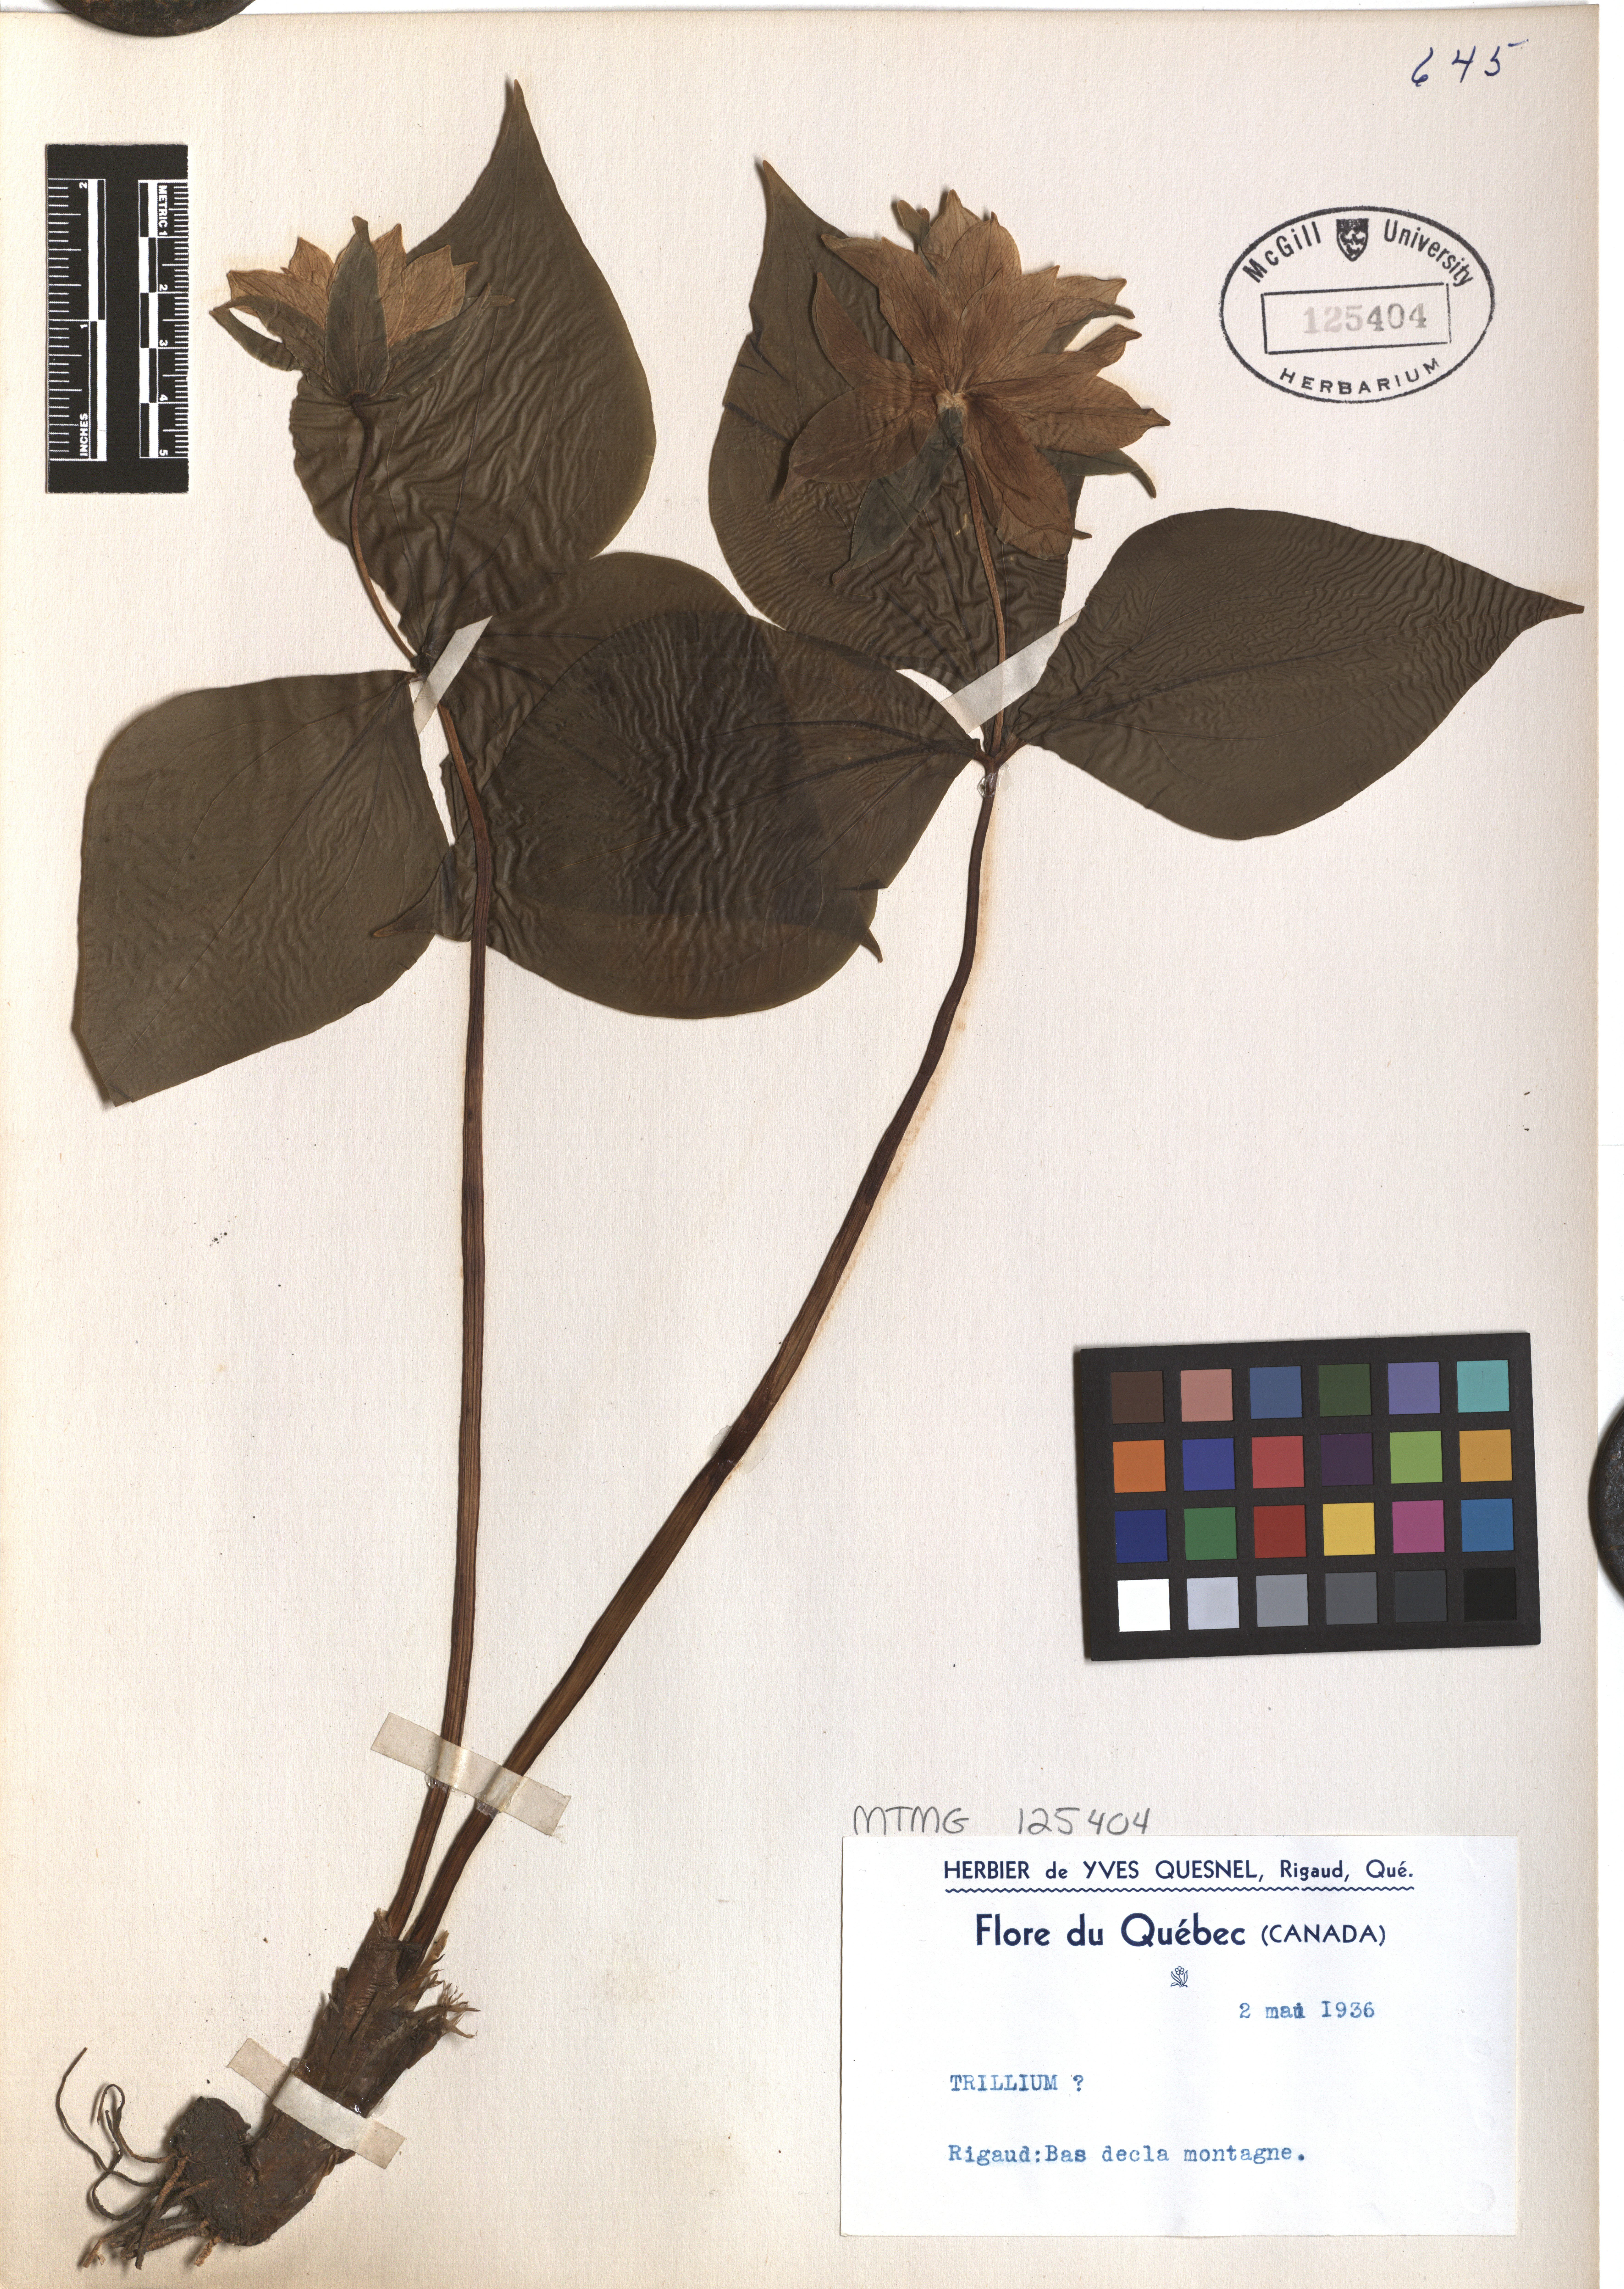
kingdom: Plantae
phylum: Tracheophyta
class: Liliopsida
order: Liliales
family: Melanthiaceae
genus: Trillium
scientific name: Trillium
